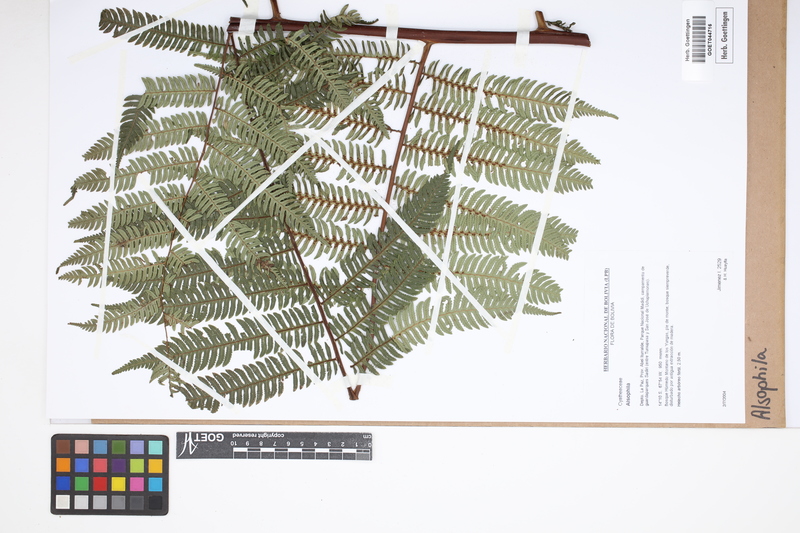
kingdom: Plantae
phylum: Tracheophyta
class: Polypodiopsida
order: Cyatheales
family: Cyatheaceae
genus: Alsophila
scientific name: Alsophila
